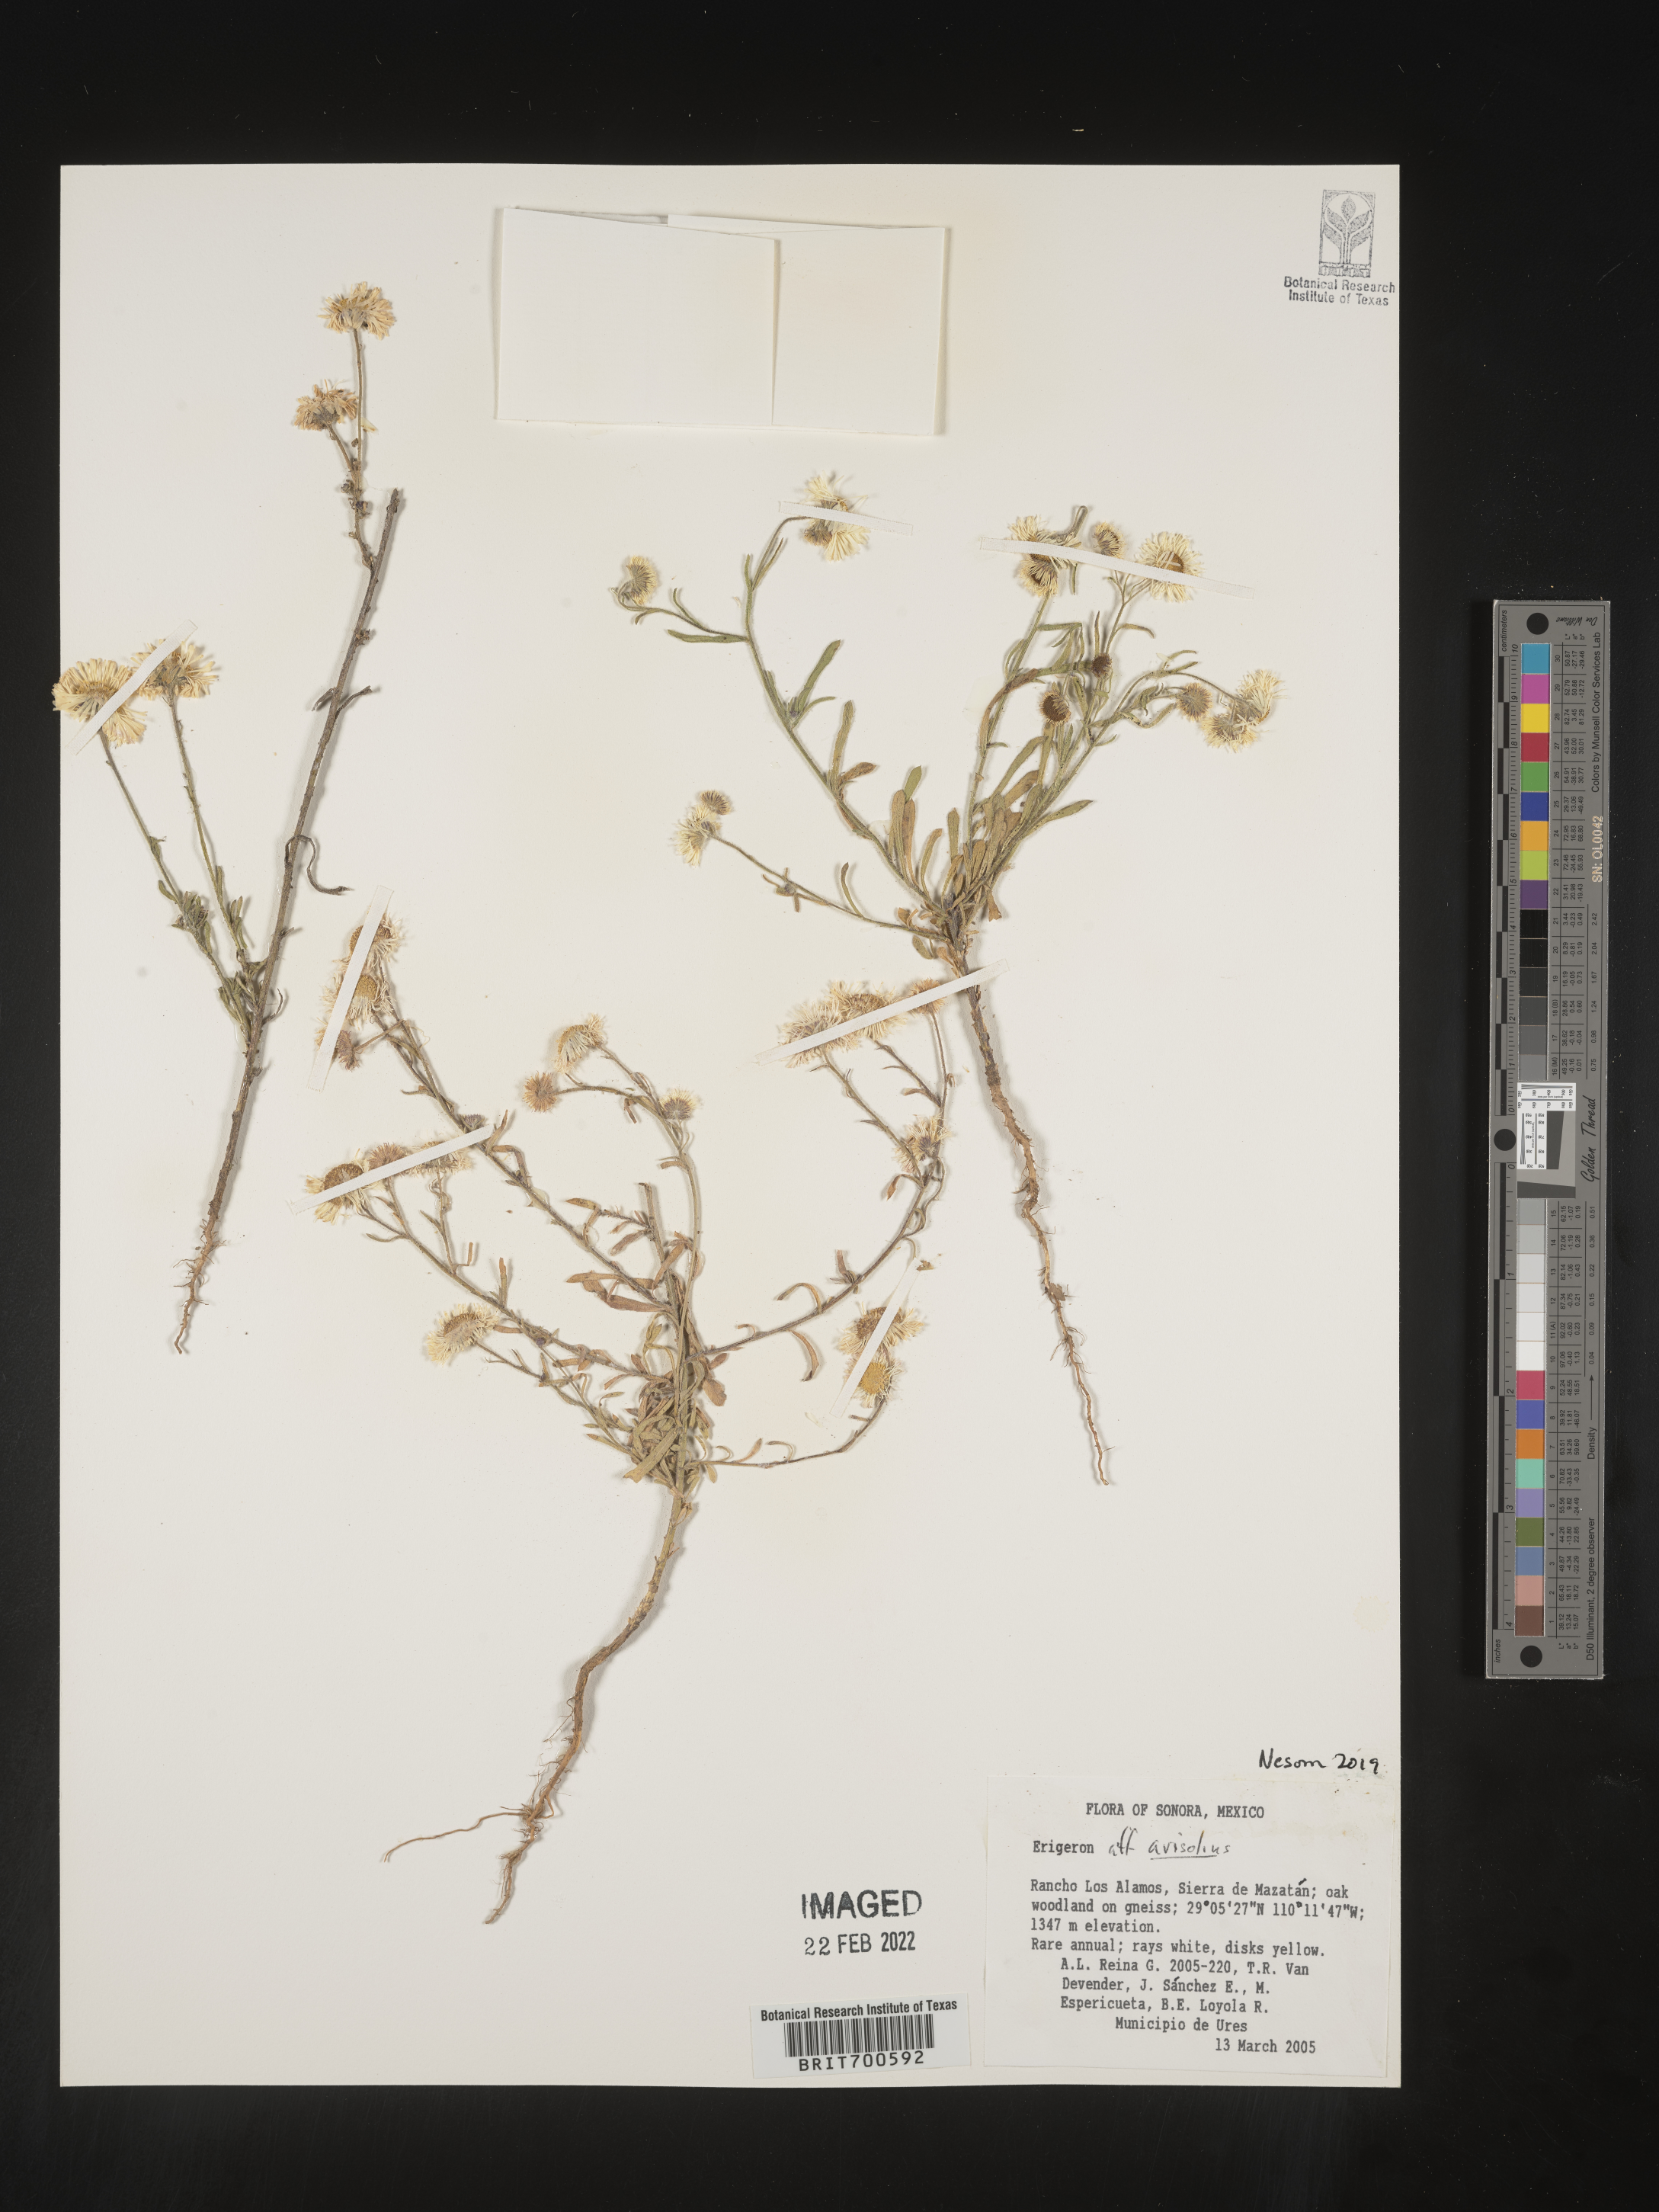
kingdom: Plantae
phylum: Tracheophyta
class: Magnoliopsida
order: Asterales
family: Asteraceae
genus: Erigeron
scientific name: Erigeron arisolius
